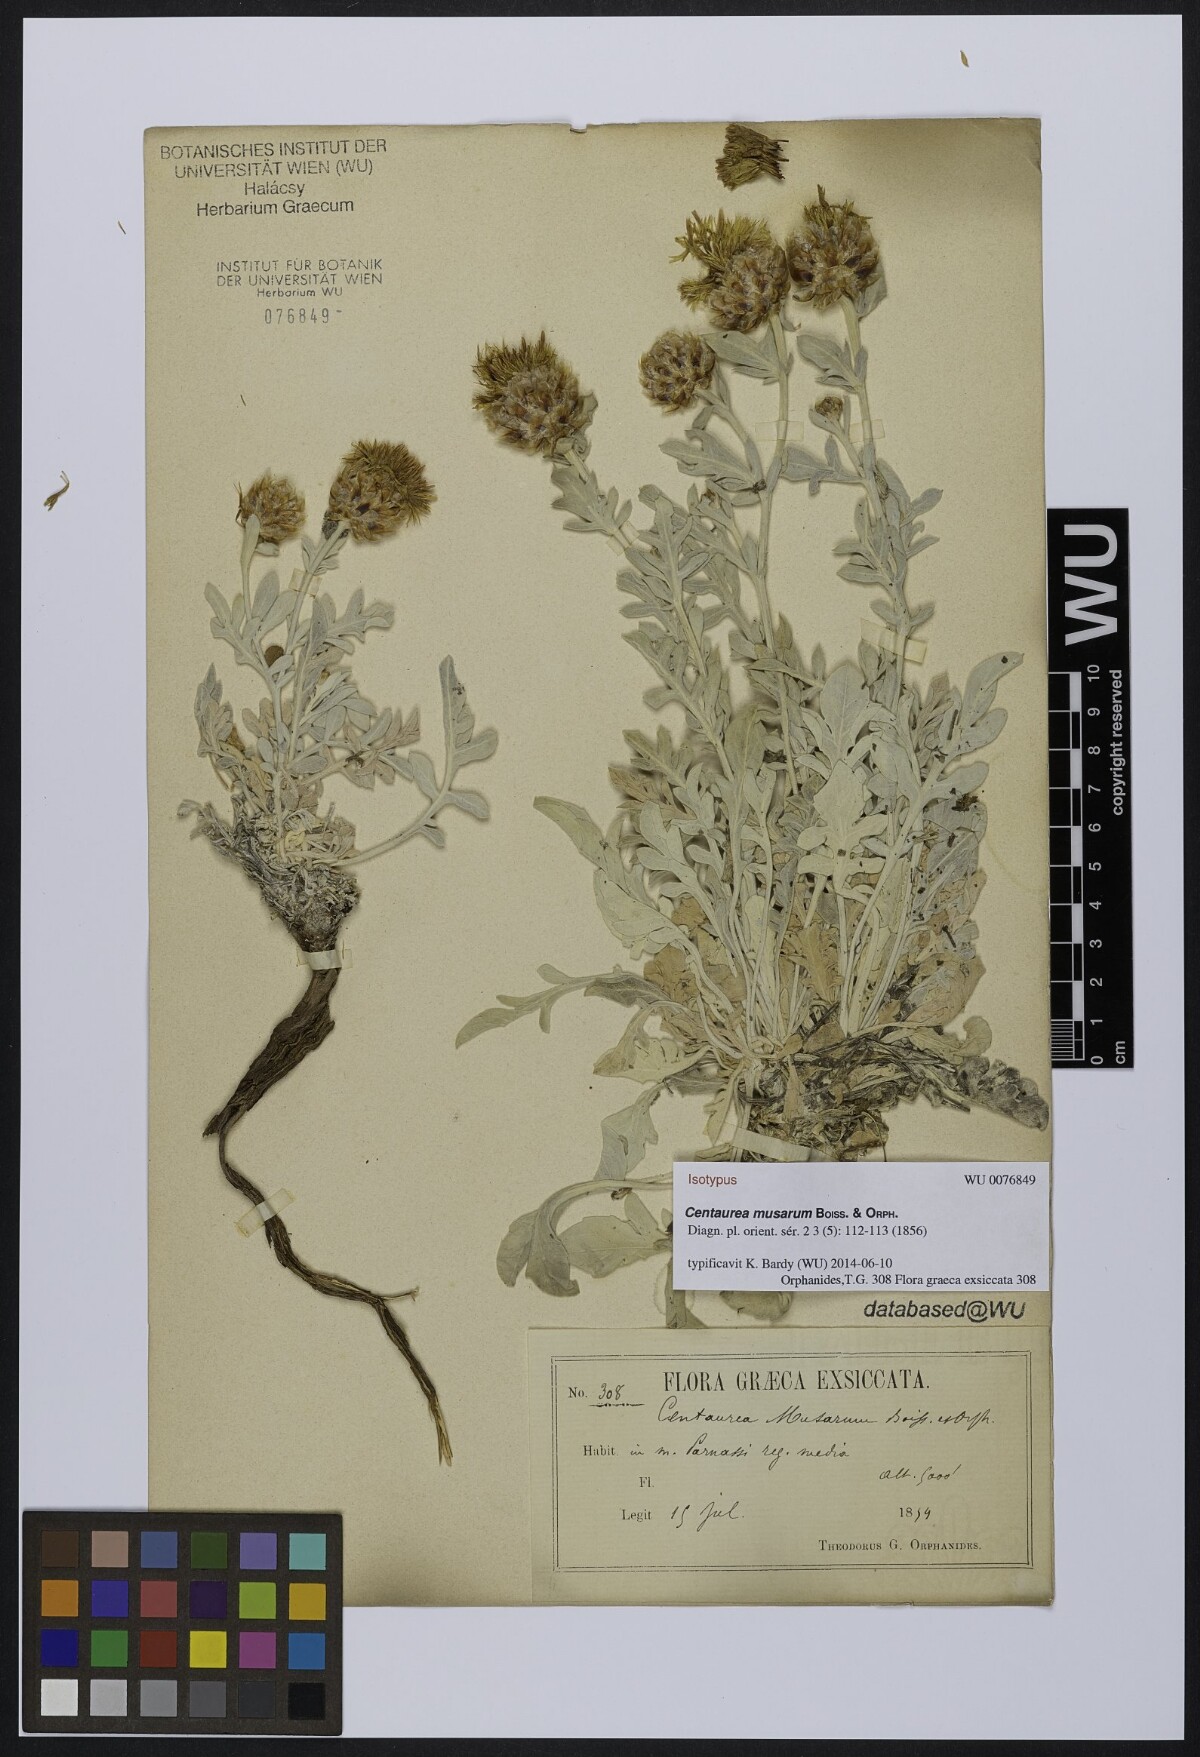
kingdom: Plantae
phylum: Tracheophyta
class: Magnoliopsida
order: Asterales
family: Asteraceae
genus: Centaurea
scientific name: Centaurea musarum
